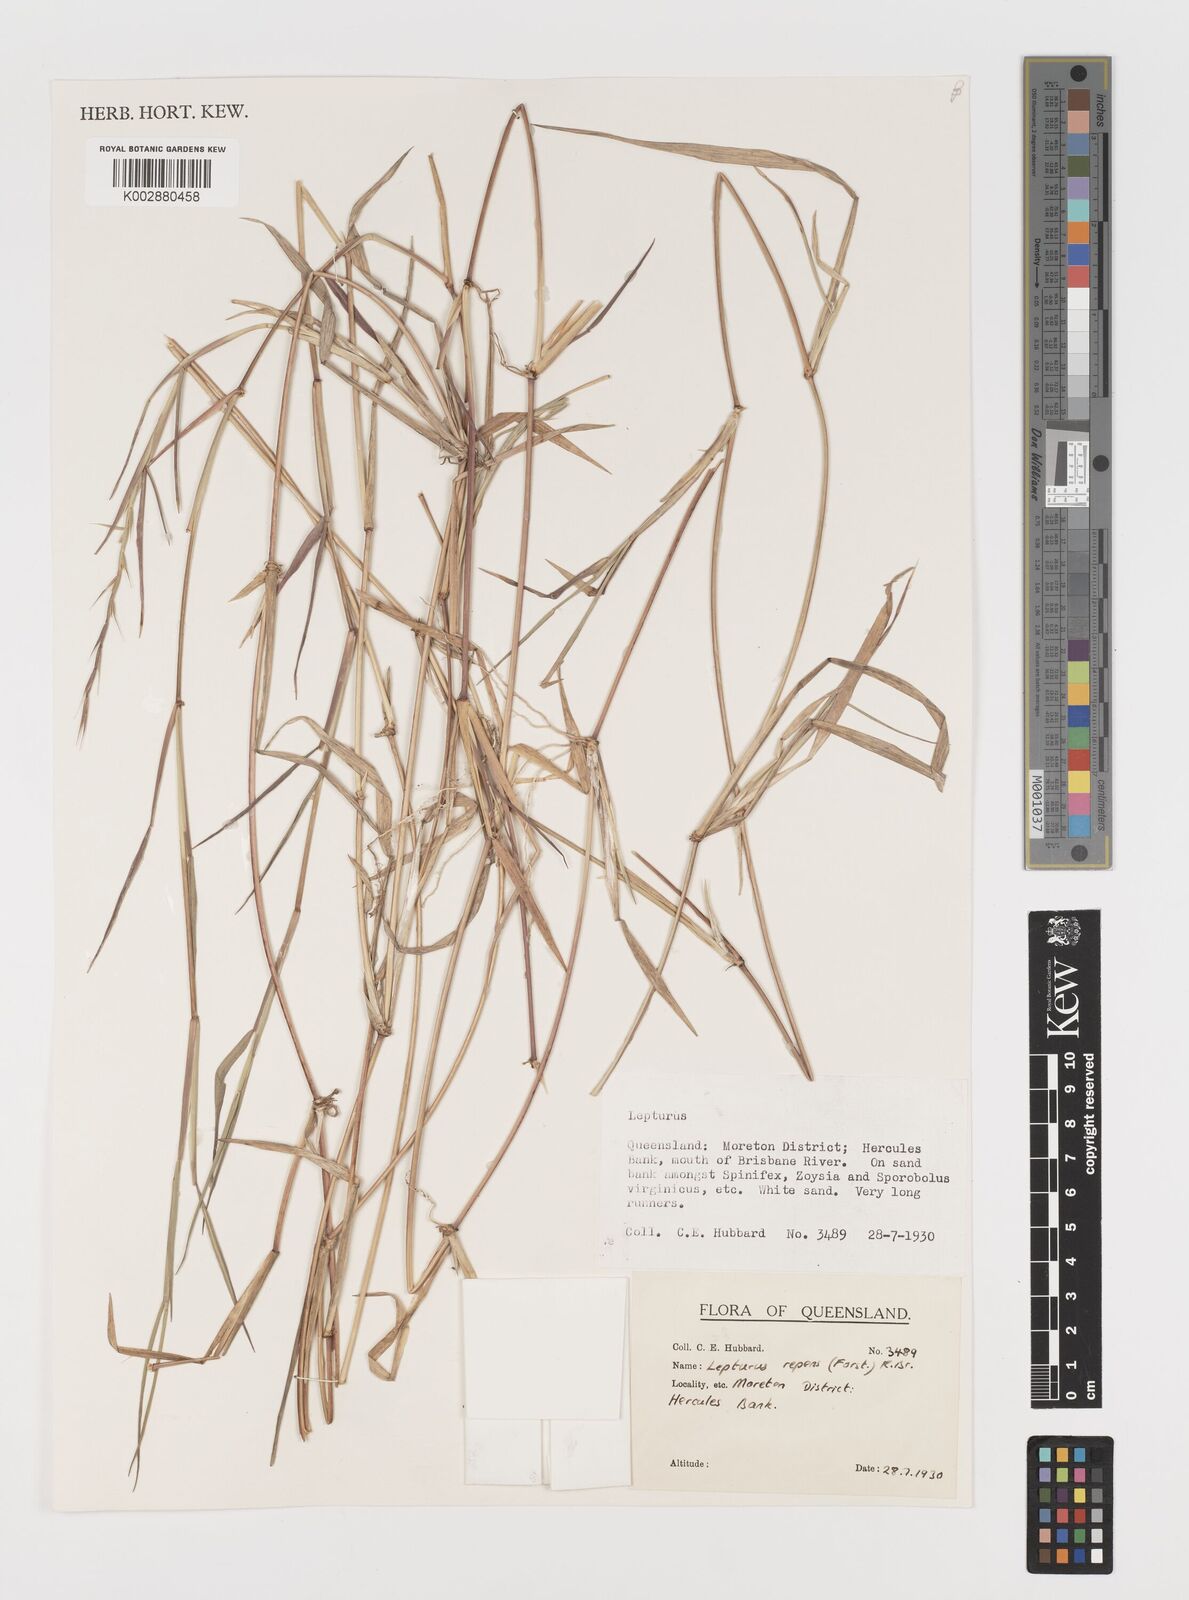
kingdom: Plantae
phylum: Tracheophyta
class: Liliopsida
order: Poales
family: Poaceae
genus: Lepturus
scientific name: Lepturus repens
